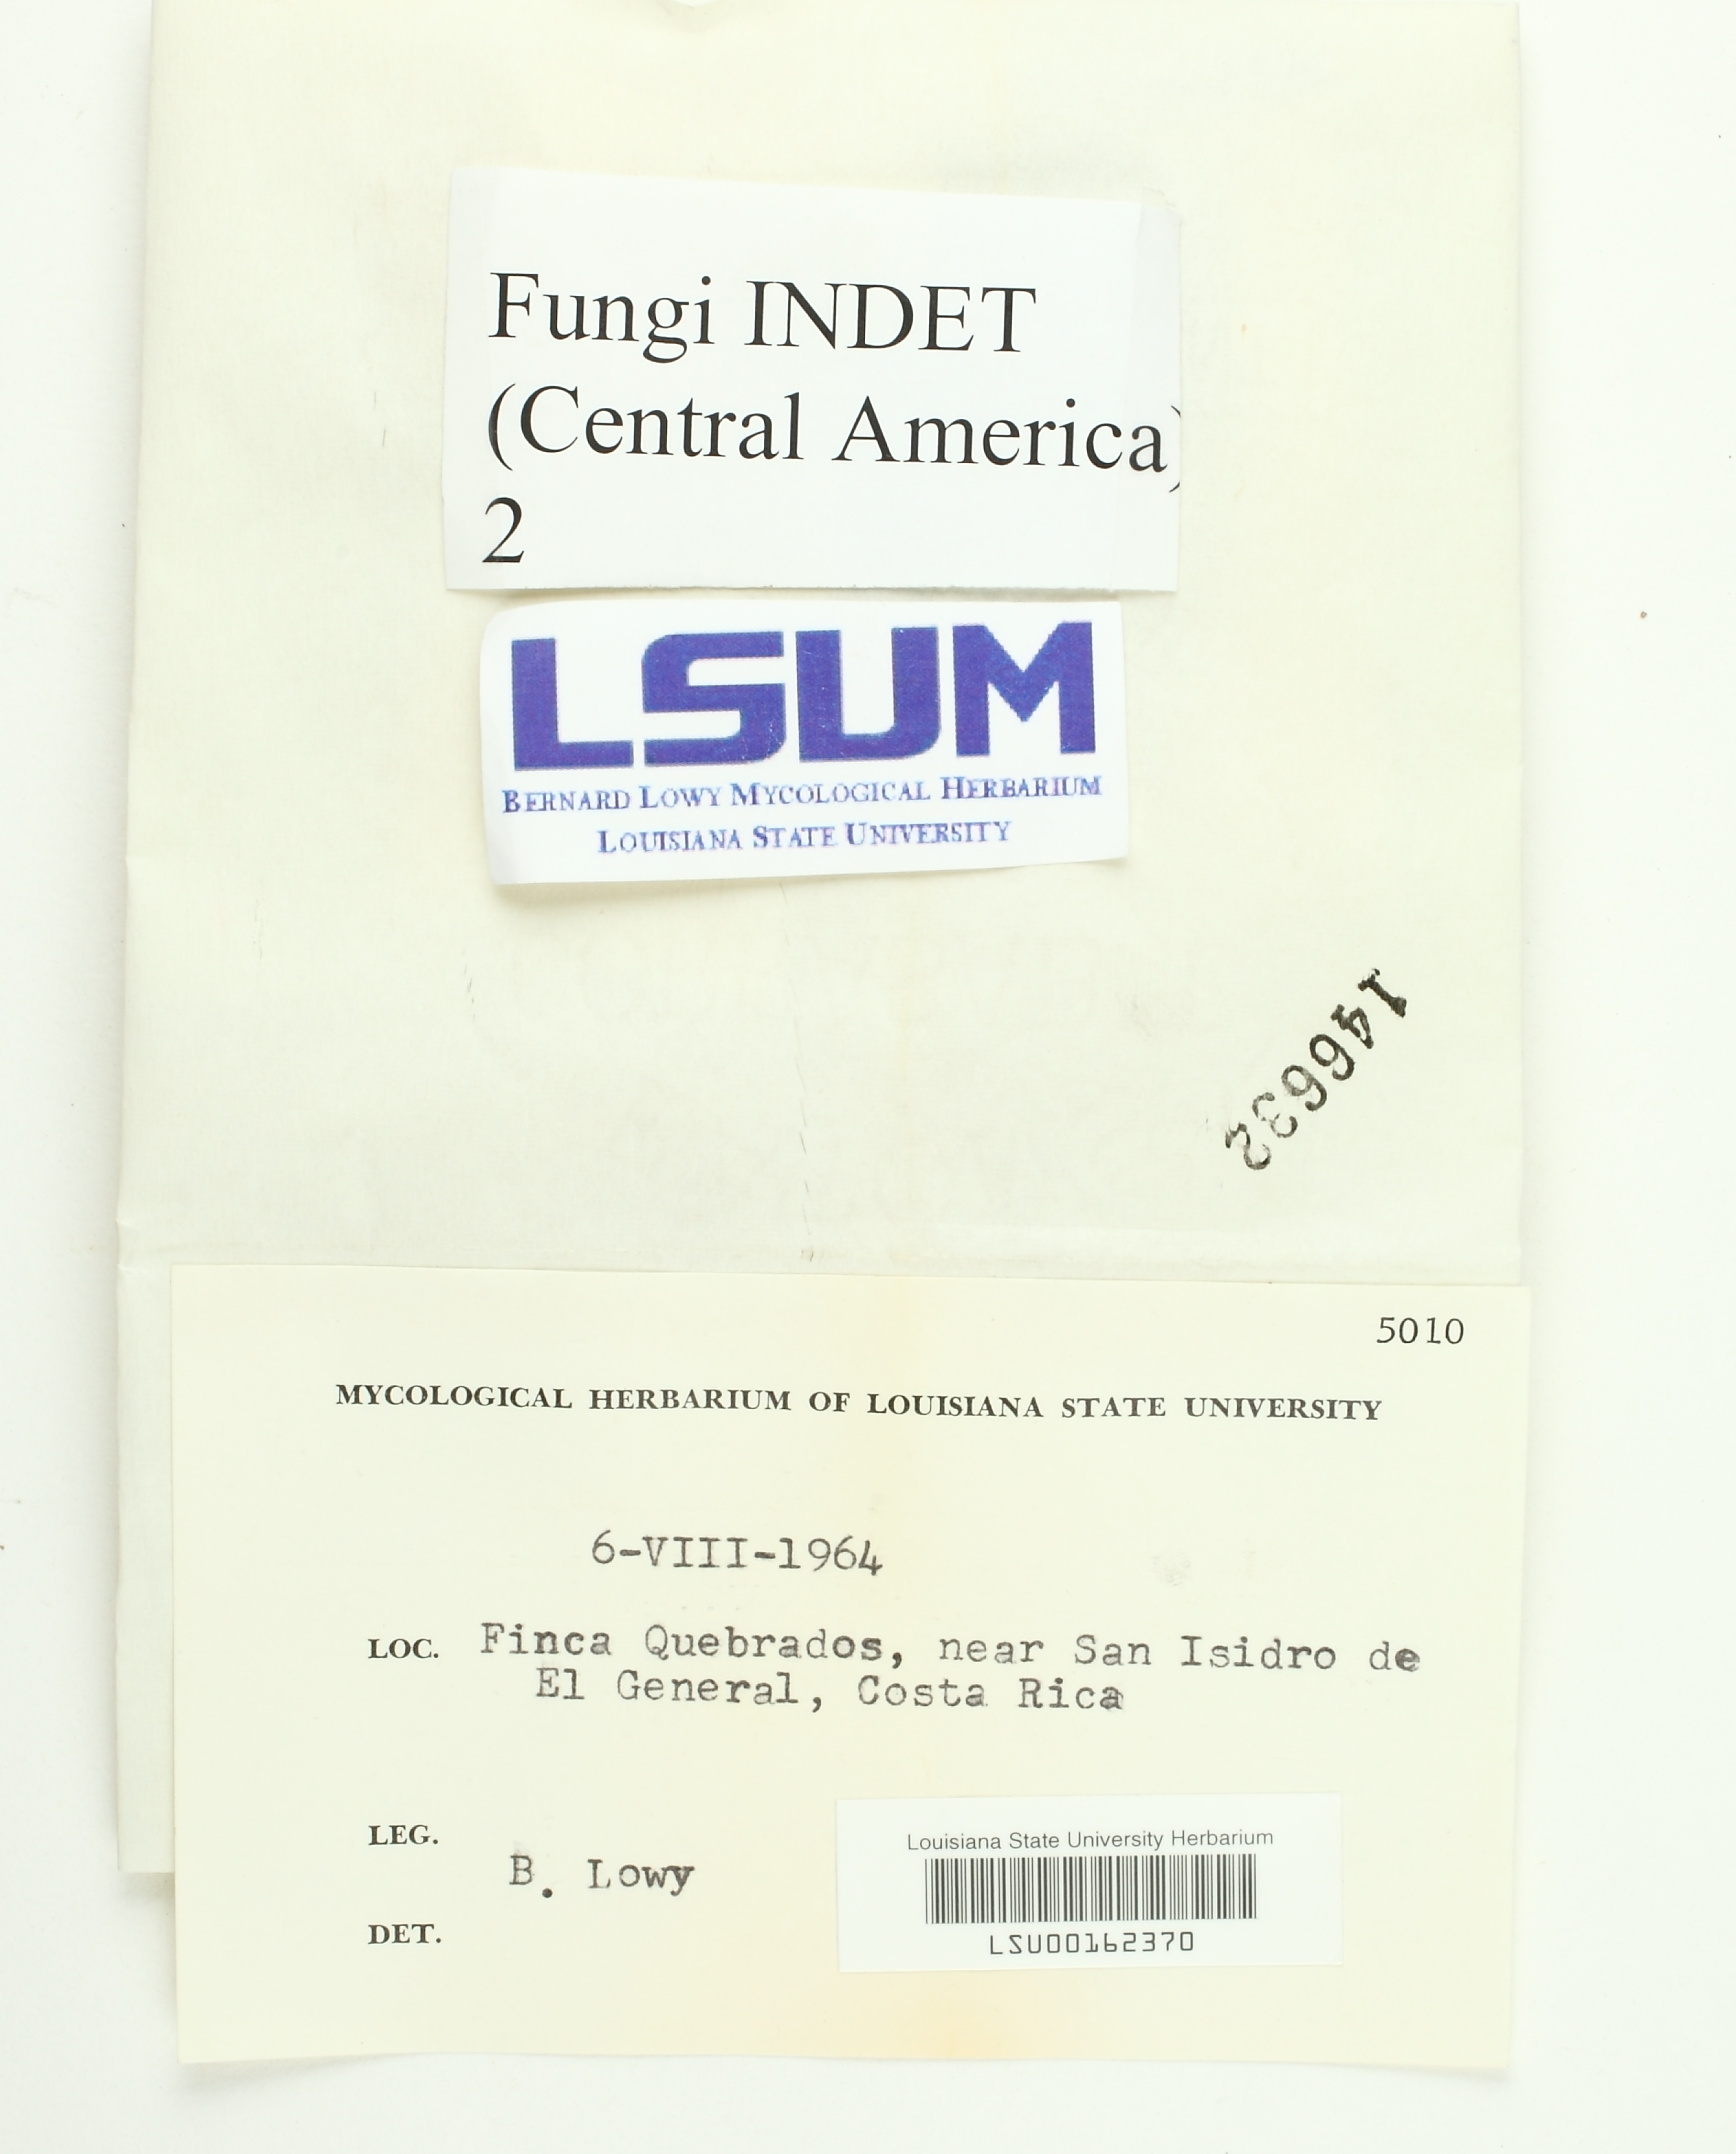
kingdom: Fungi
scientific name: Fungi
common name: Fungi
